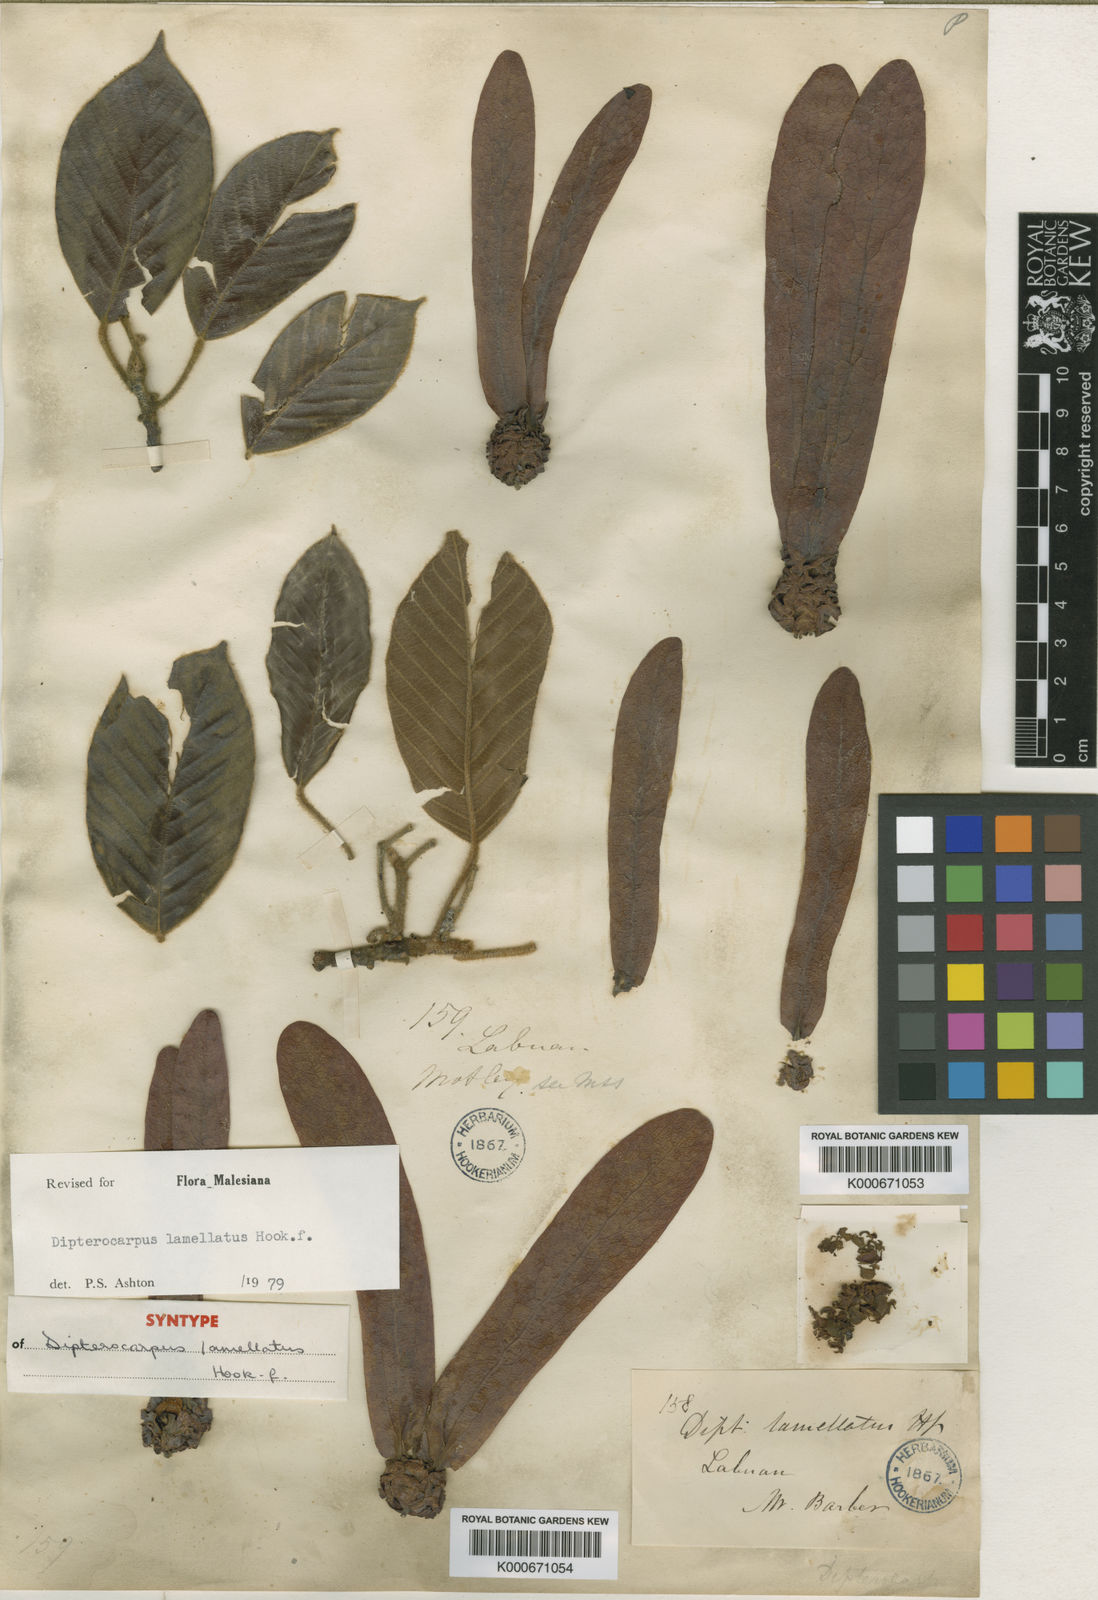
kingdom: Plantae
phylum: Tracheophyta
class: Magnoliopsida
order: Malvales
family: Dipterocarpaceae
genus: Dipterocarpus
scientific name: Dipterocarpus lamellatus
